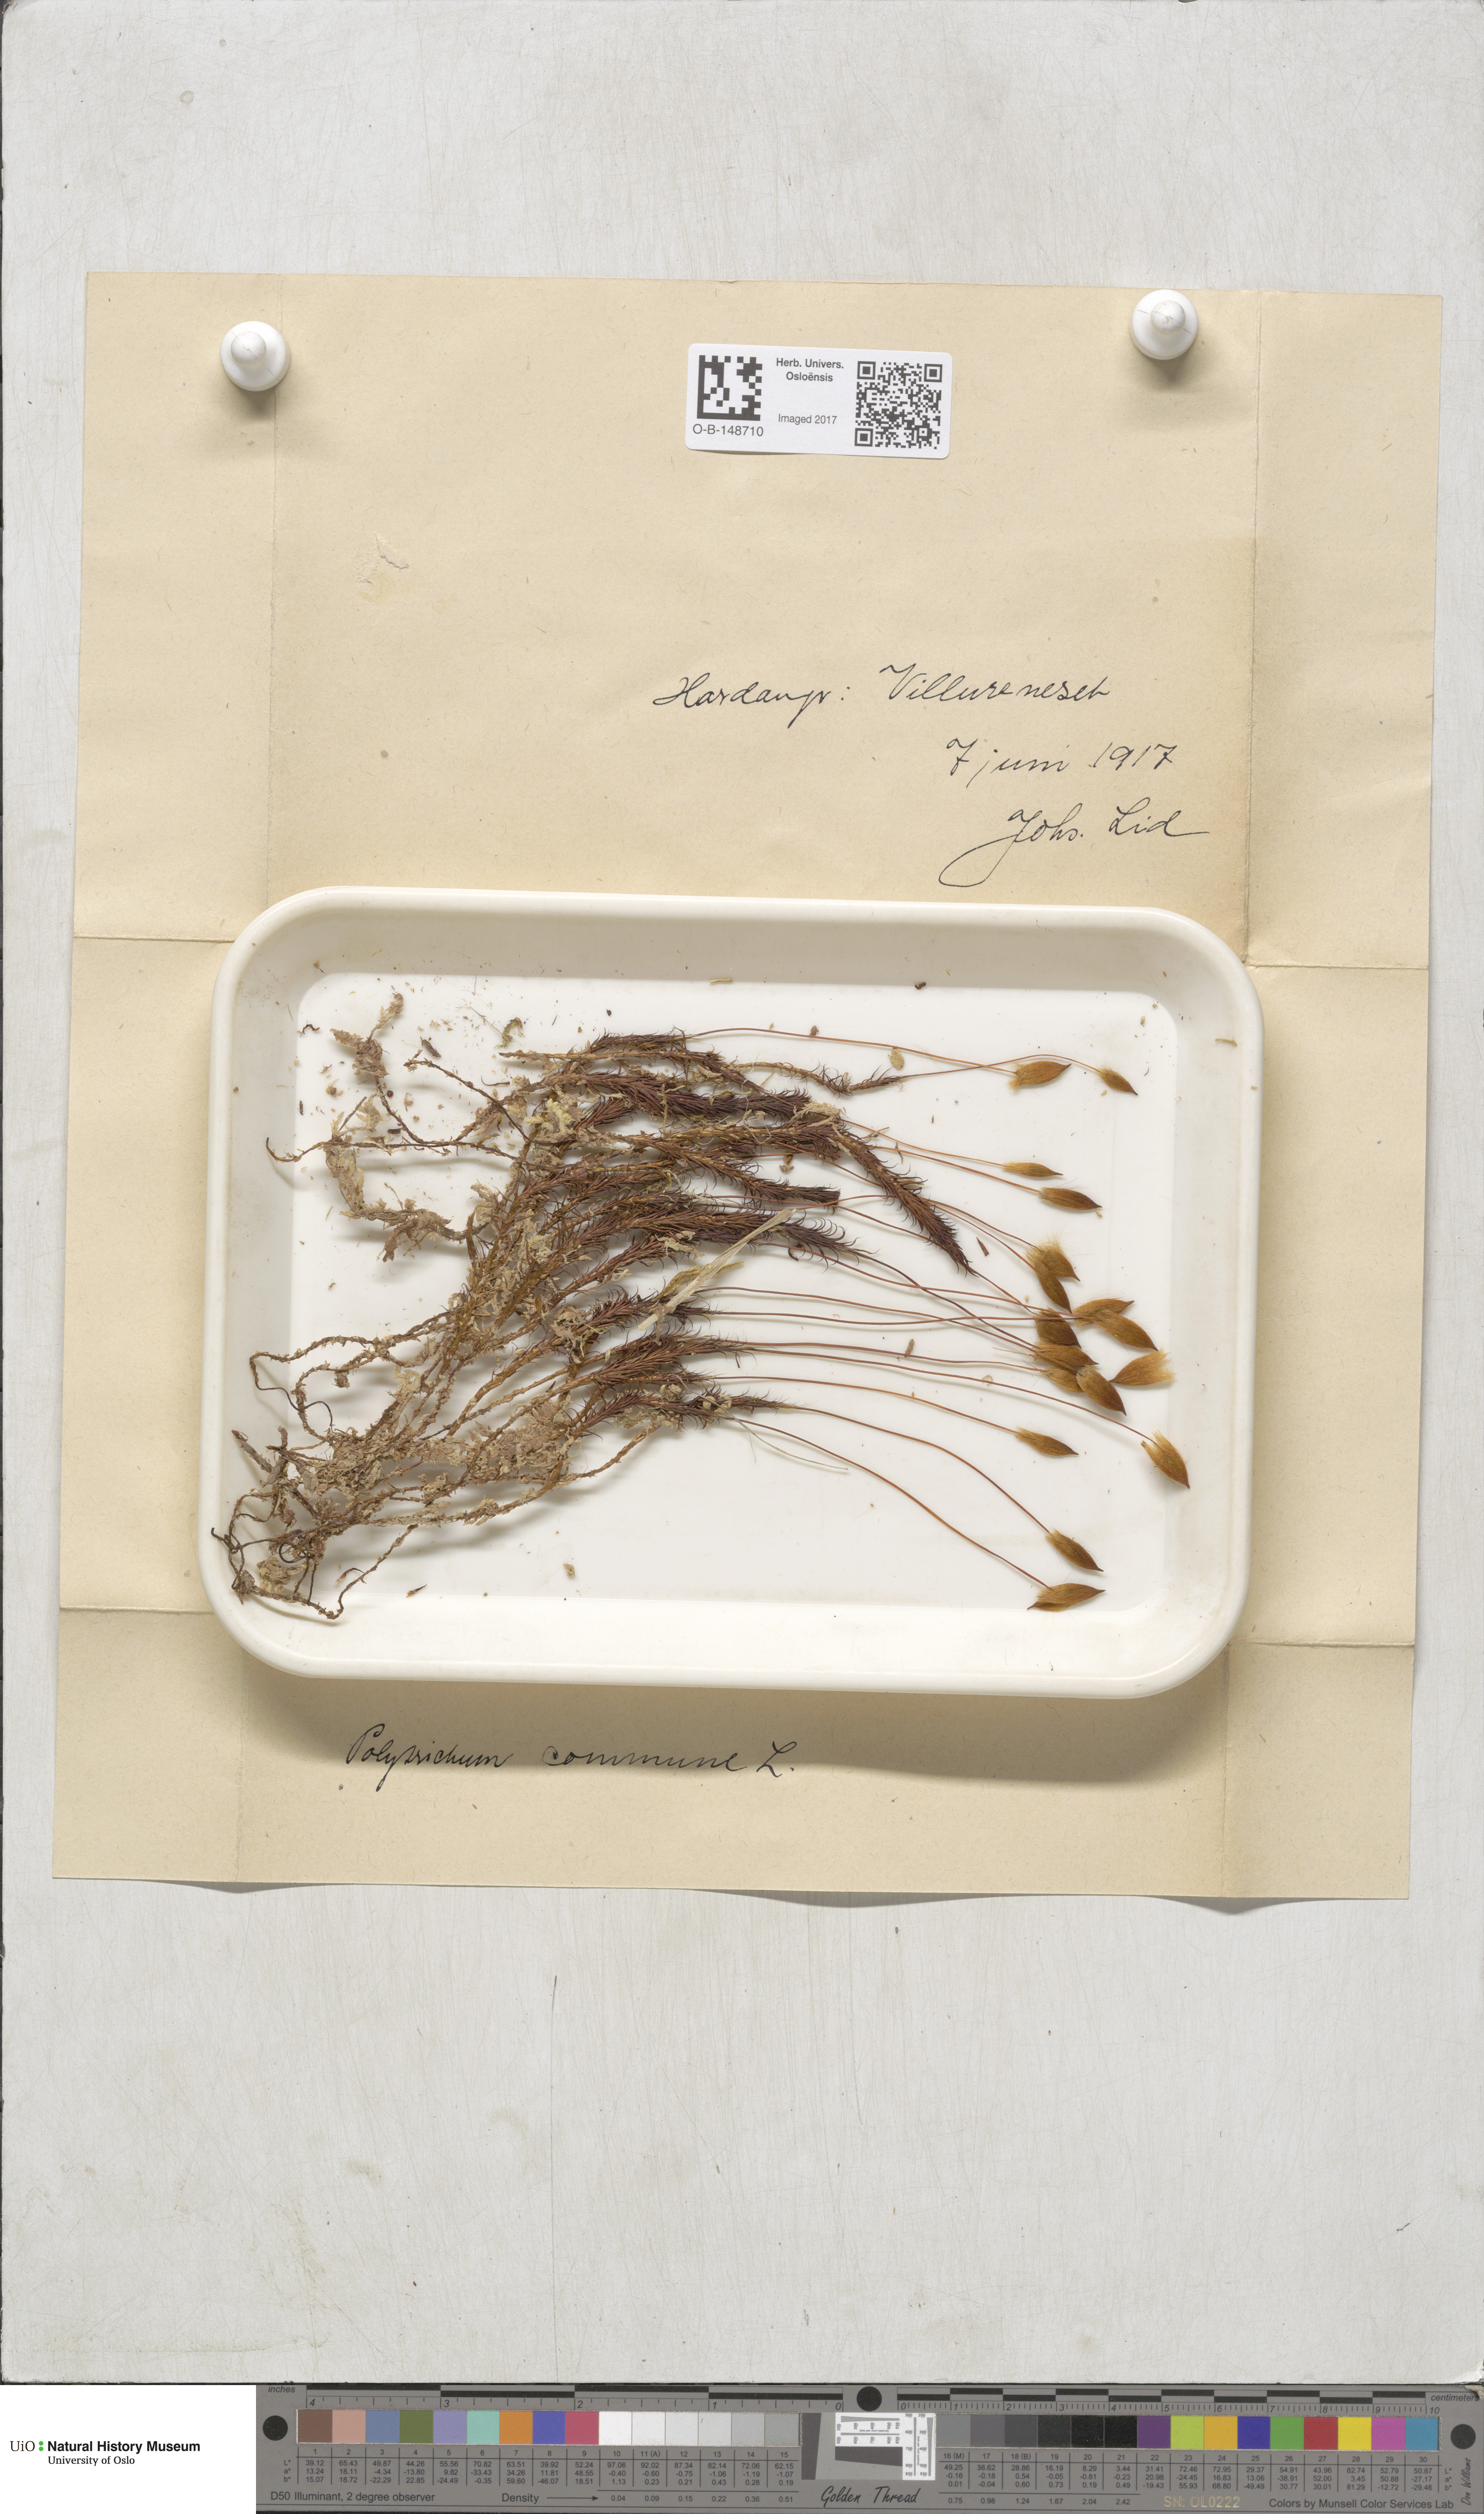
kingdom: Plantae
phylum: Bryophyta
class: Polytrichopsida
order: Polytrichales
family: Polytrichaceae
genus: Polytrichum
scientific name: Polytrichum commune
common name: Common haircap
